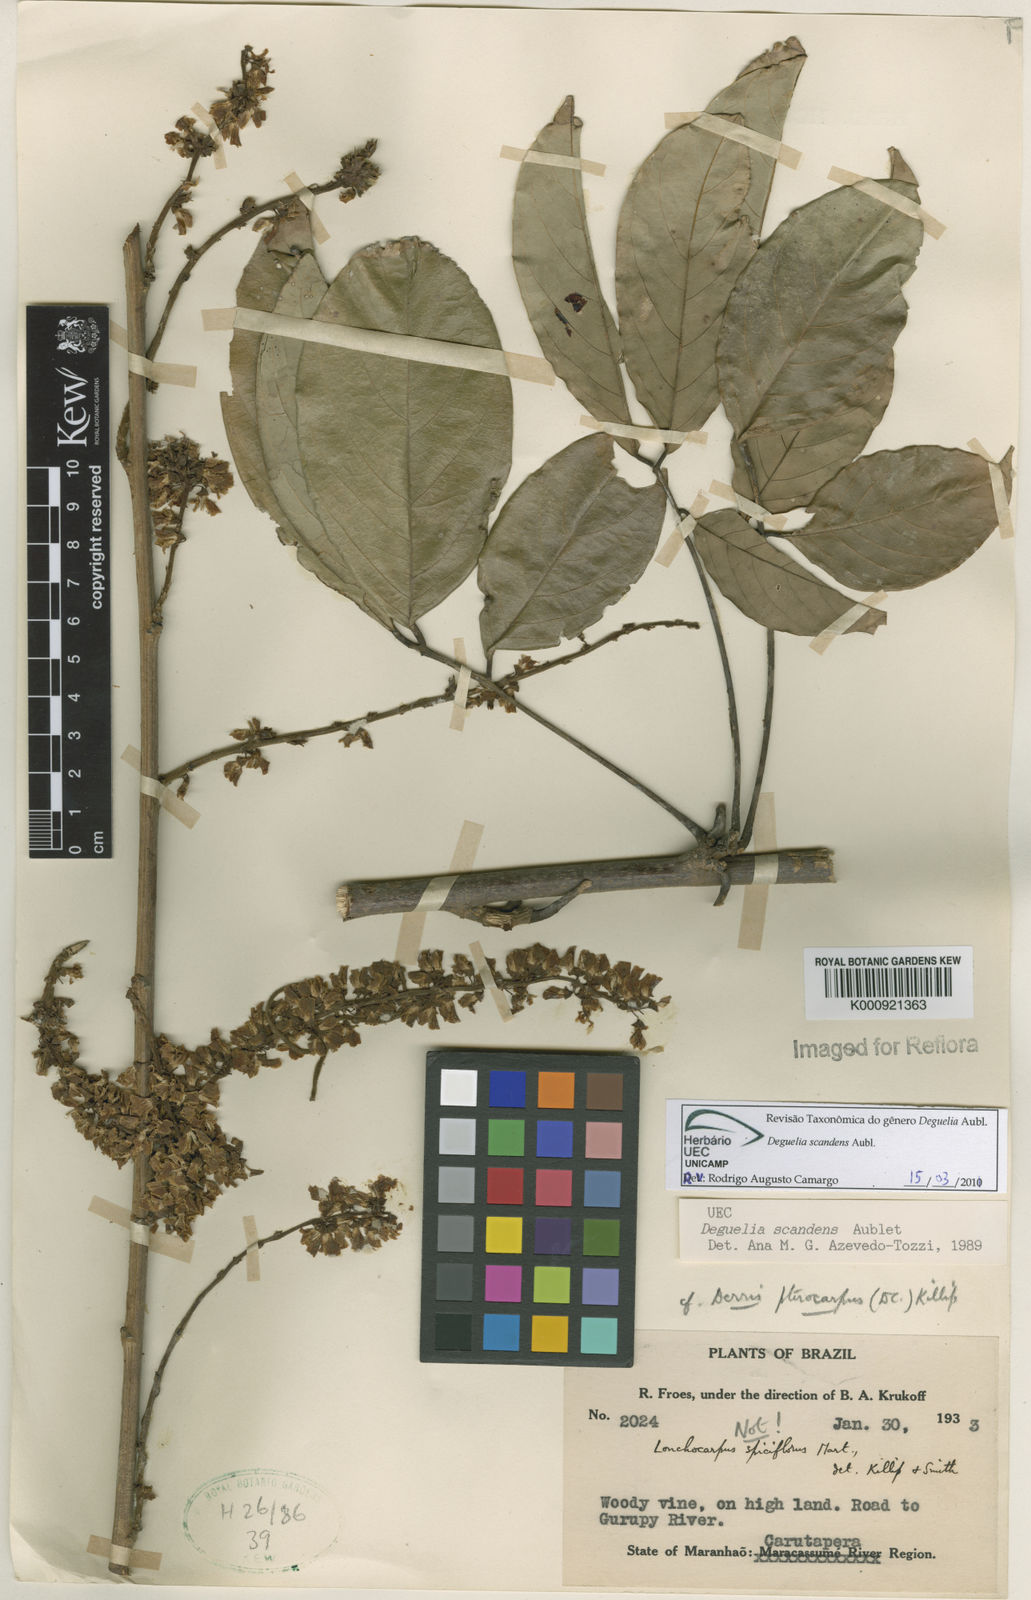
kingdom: Plantae
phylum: Tracheophyta
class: Magnoliopsida
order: Fabales
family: Fabaceae
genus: Deguelia
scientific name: Deguelia scandens
